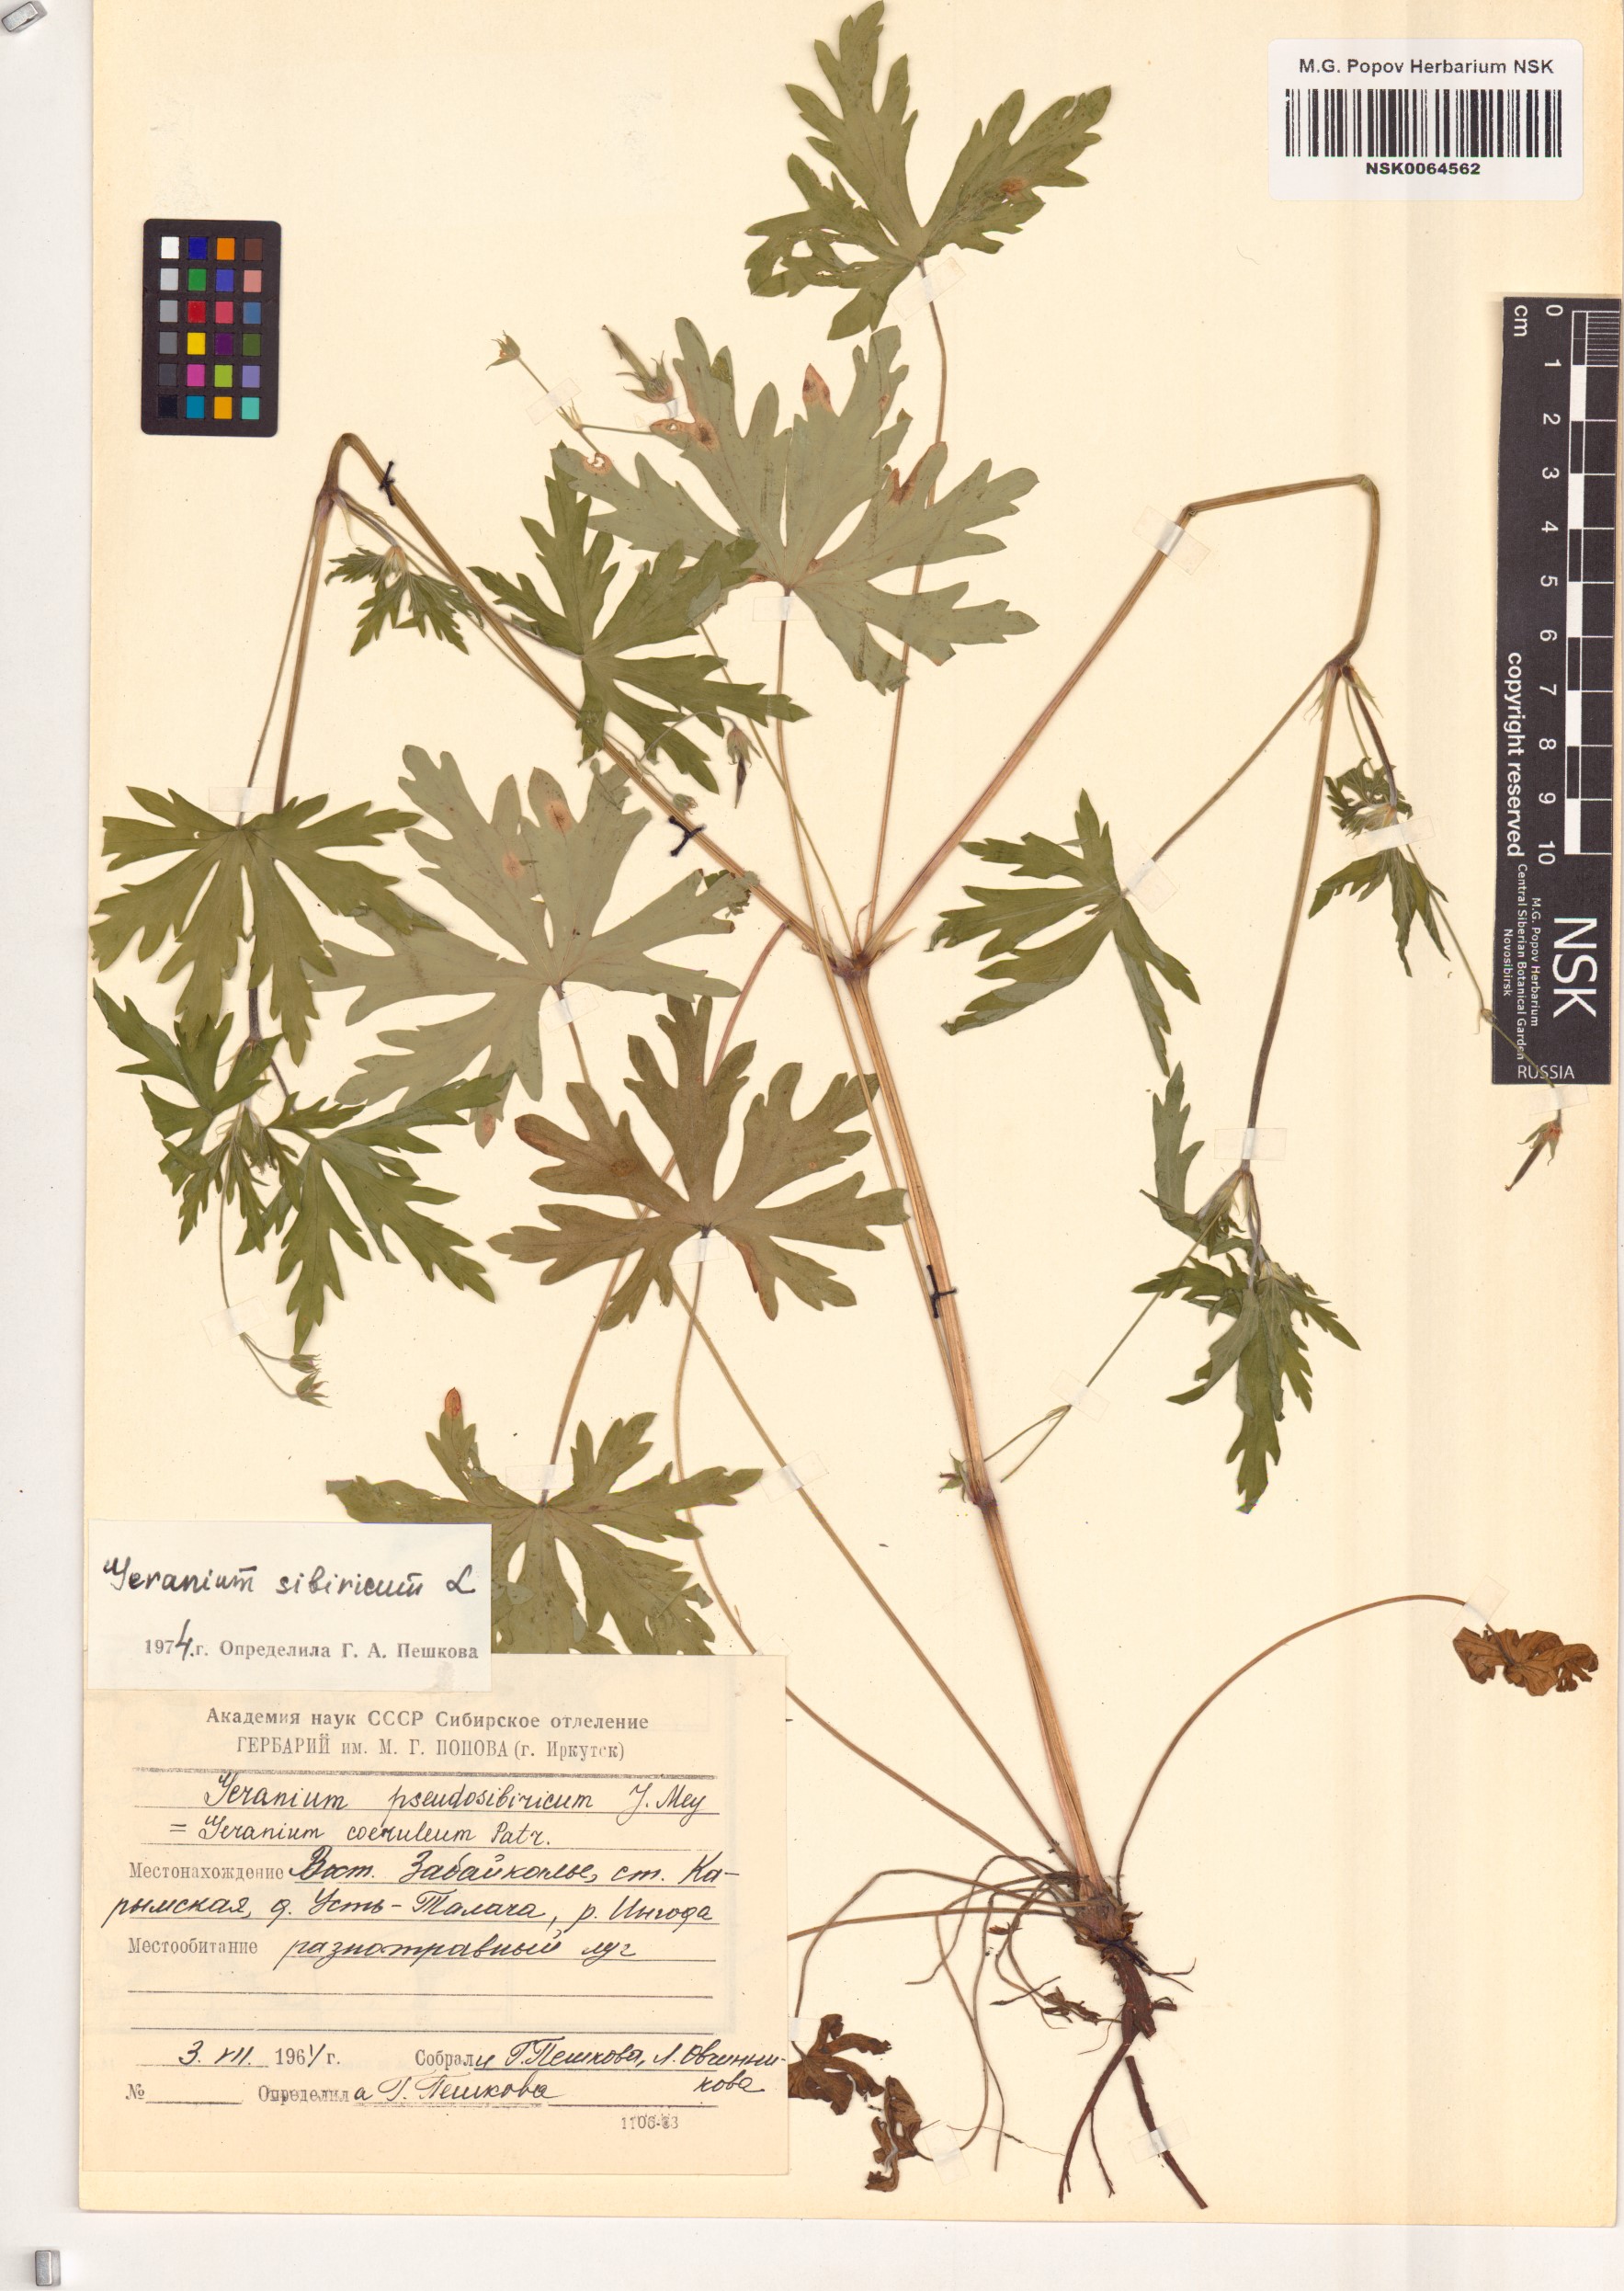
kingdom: Plantae
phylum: Tracheophyta
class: Magnoliopsida
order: Geraniales
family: Geraniaceae
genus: Geranium
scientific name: Geranium sibiricum
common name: Siberian crane's-bill
